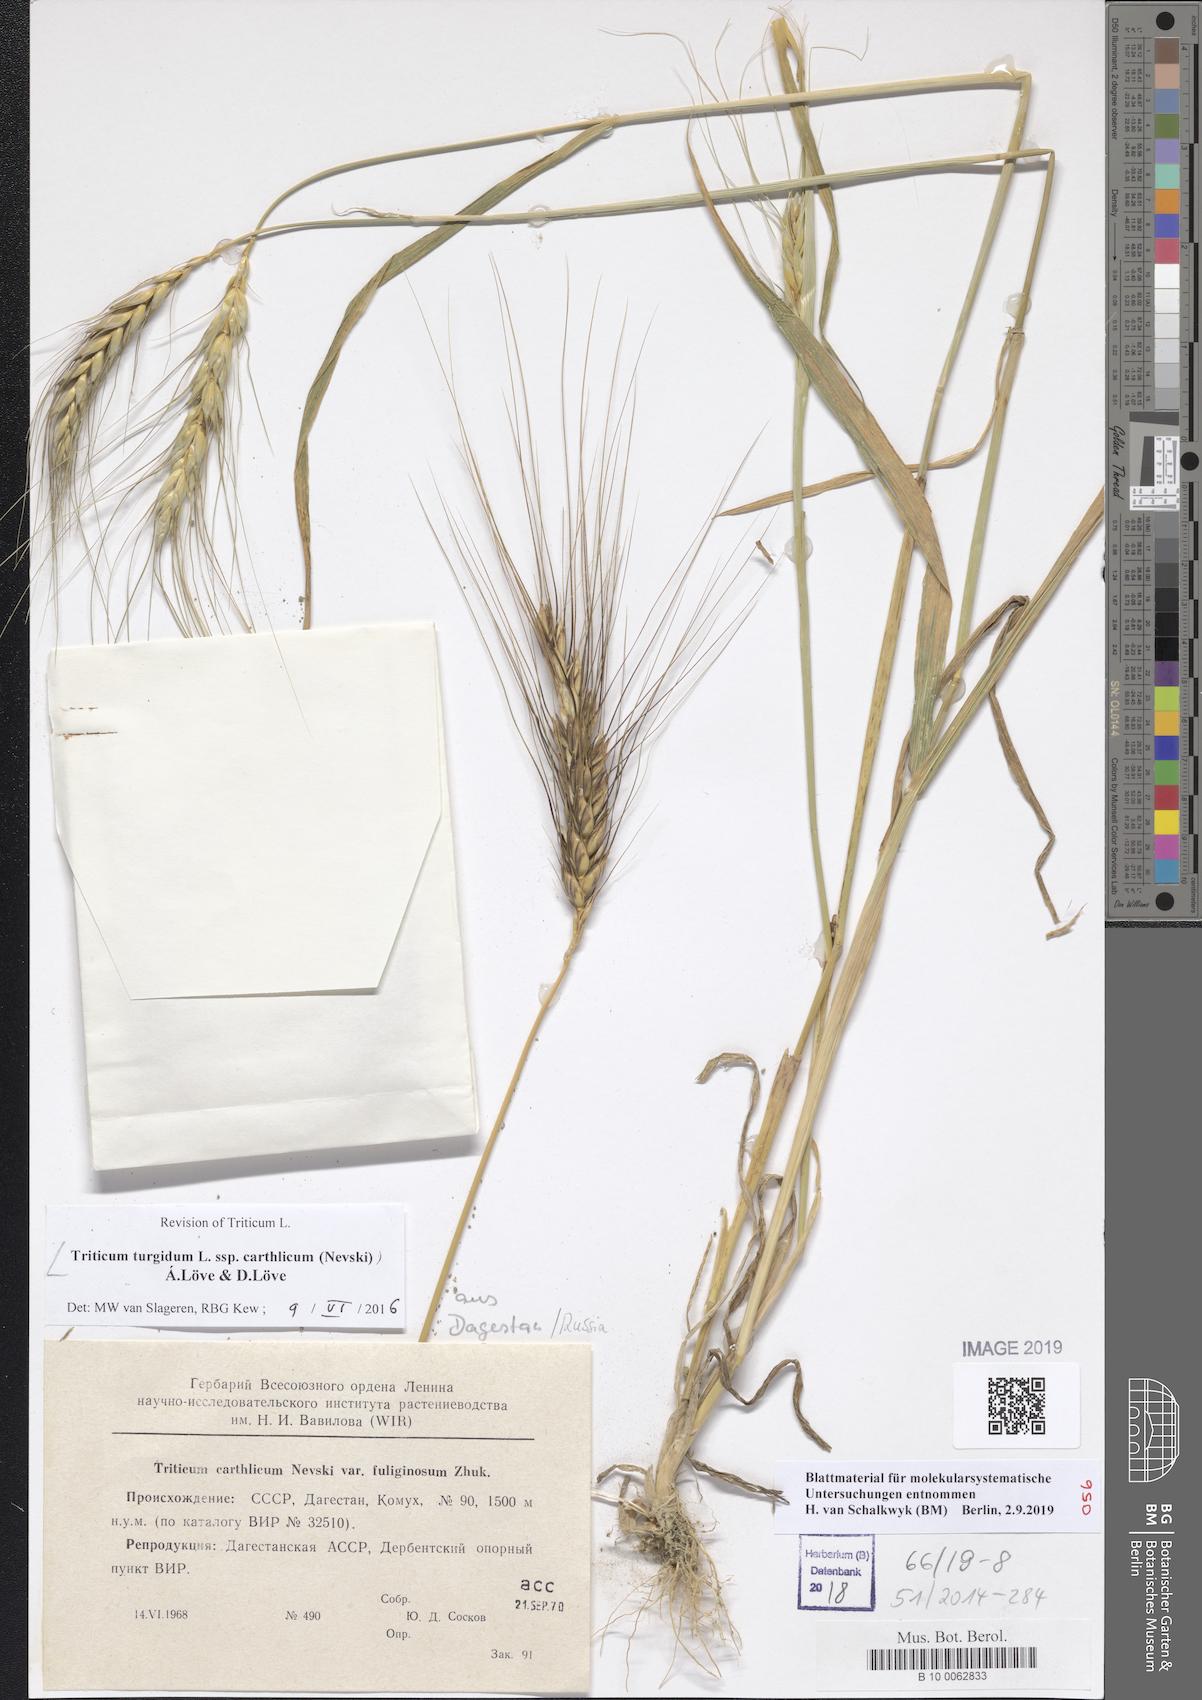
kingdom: Plantae
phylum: Tracheophyta
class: Liliopsida
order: Poales
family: Poaceae
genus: Triticum
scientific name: Triticum turgidum
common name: Rivet wheat
